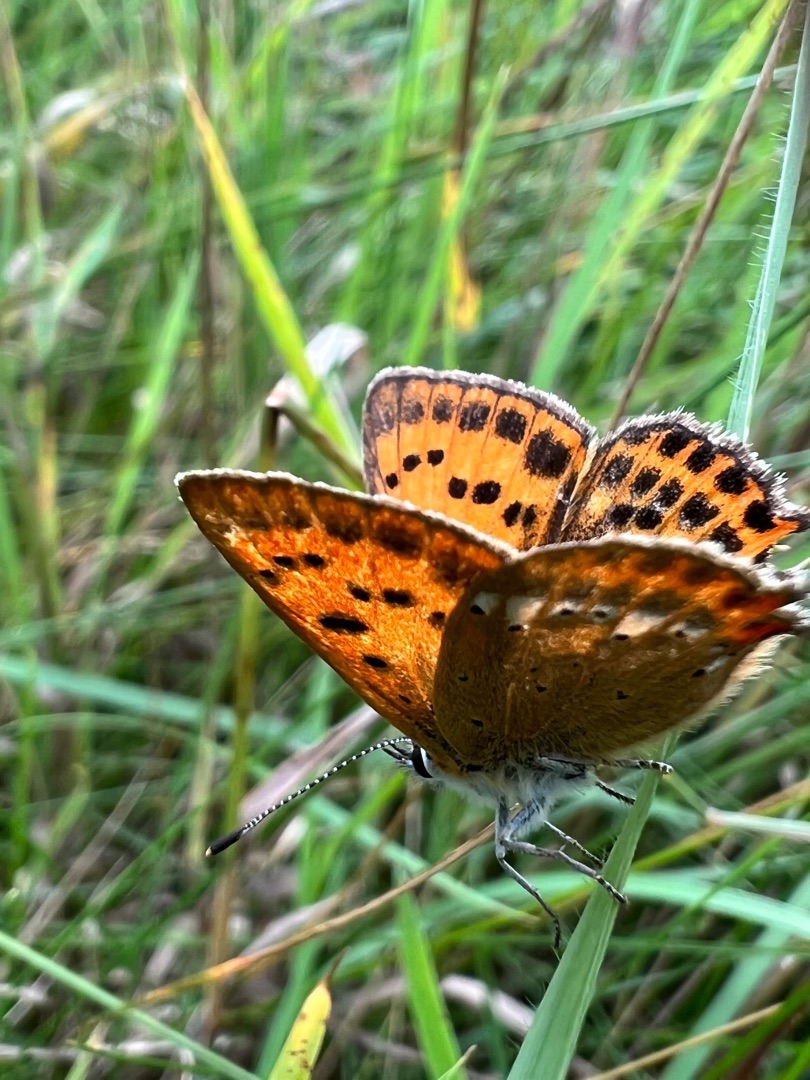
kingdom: Animalia
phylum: Arthropoda
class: Insecta
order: Lepidoptera
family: Lycaenidae
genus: Lycaena
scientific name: Lycaena virgaureae
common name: Dukatsommerfugl
